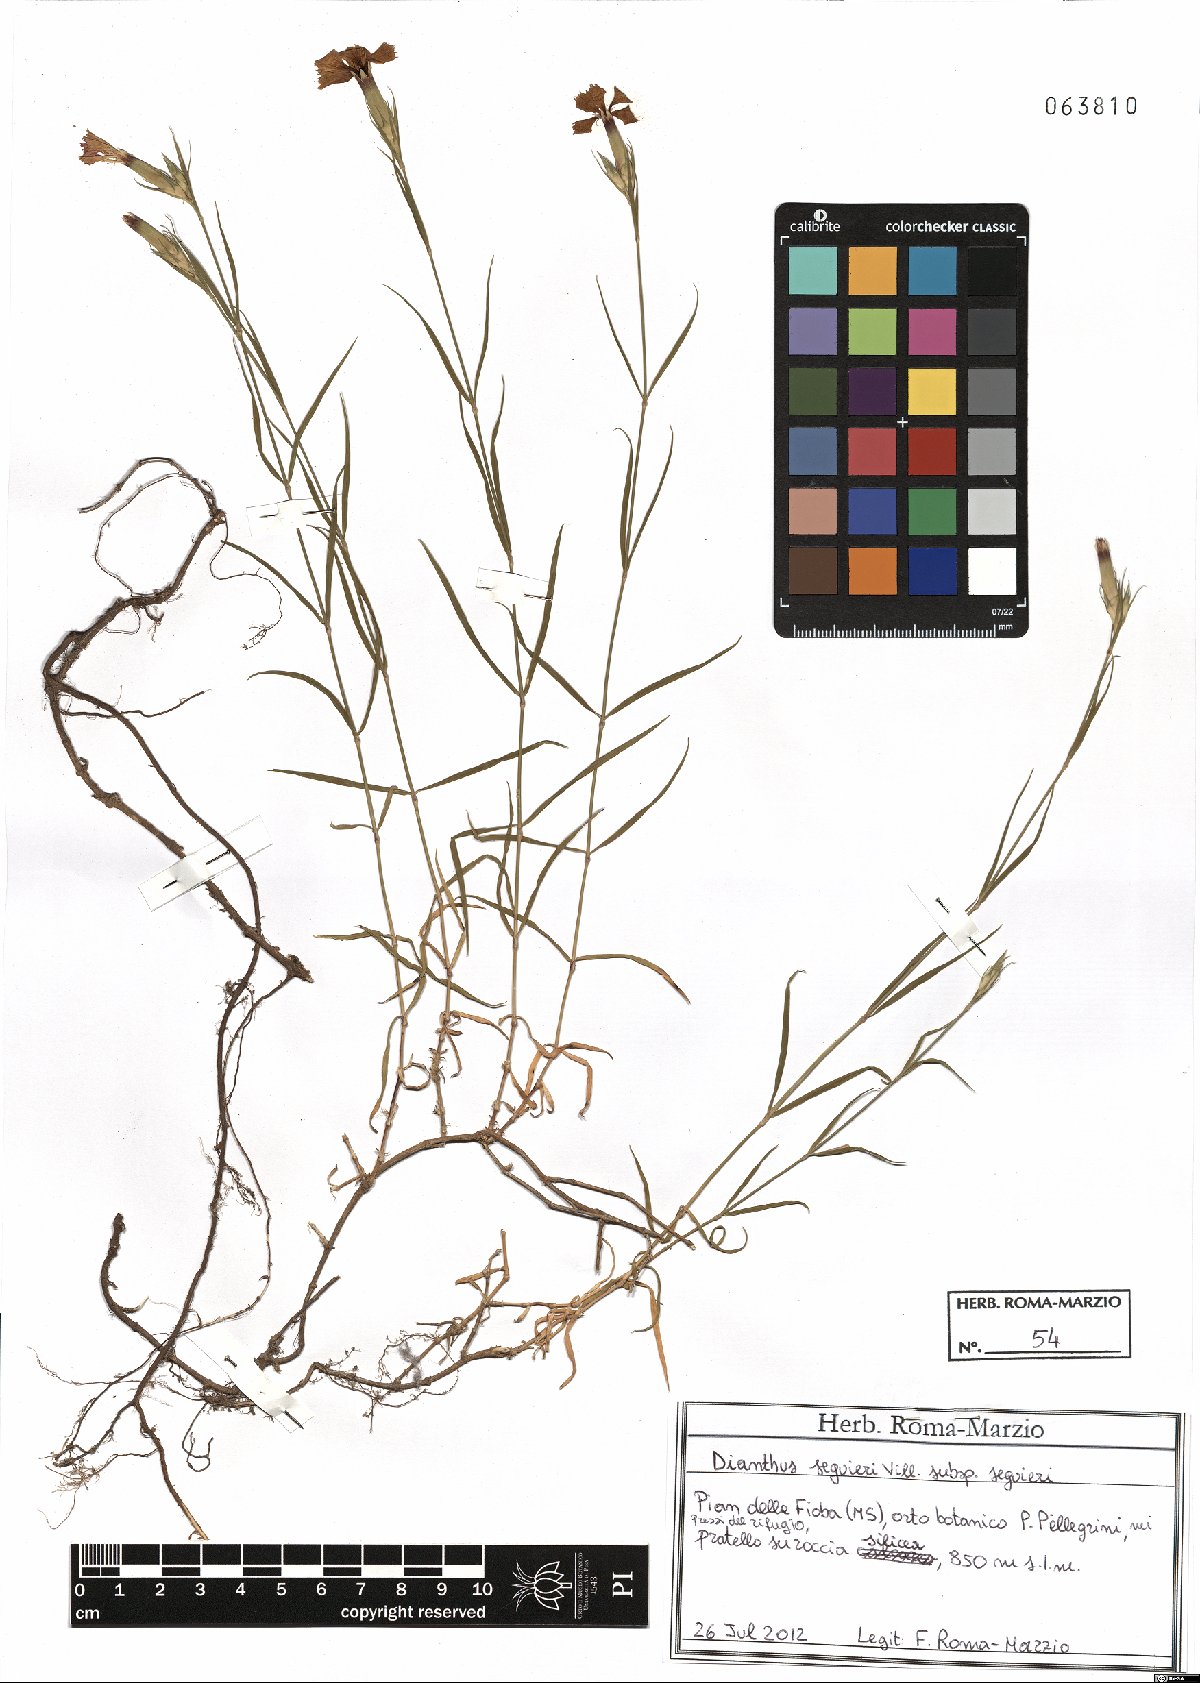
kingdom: Plantae
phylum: Tracheophyta
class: Magnoliopsida
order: Caryophyllales
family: Caryophyllaceae
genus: Dianthus
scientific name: Dianthus seguieri
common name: Ragged pink
